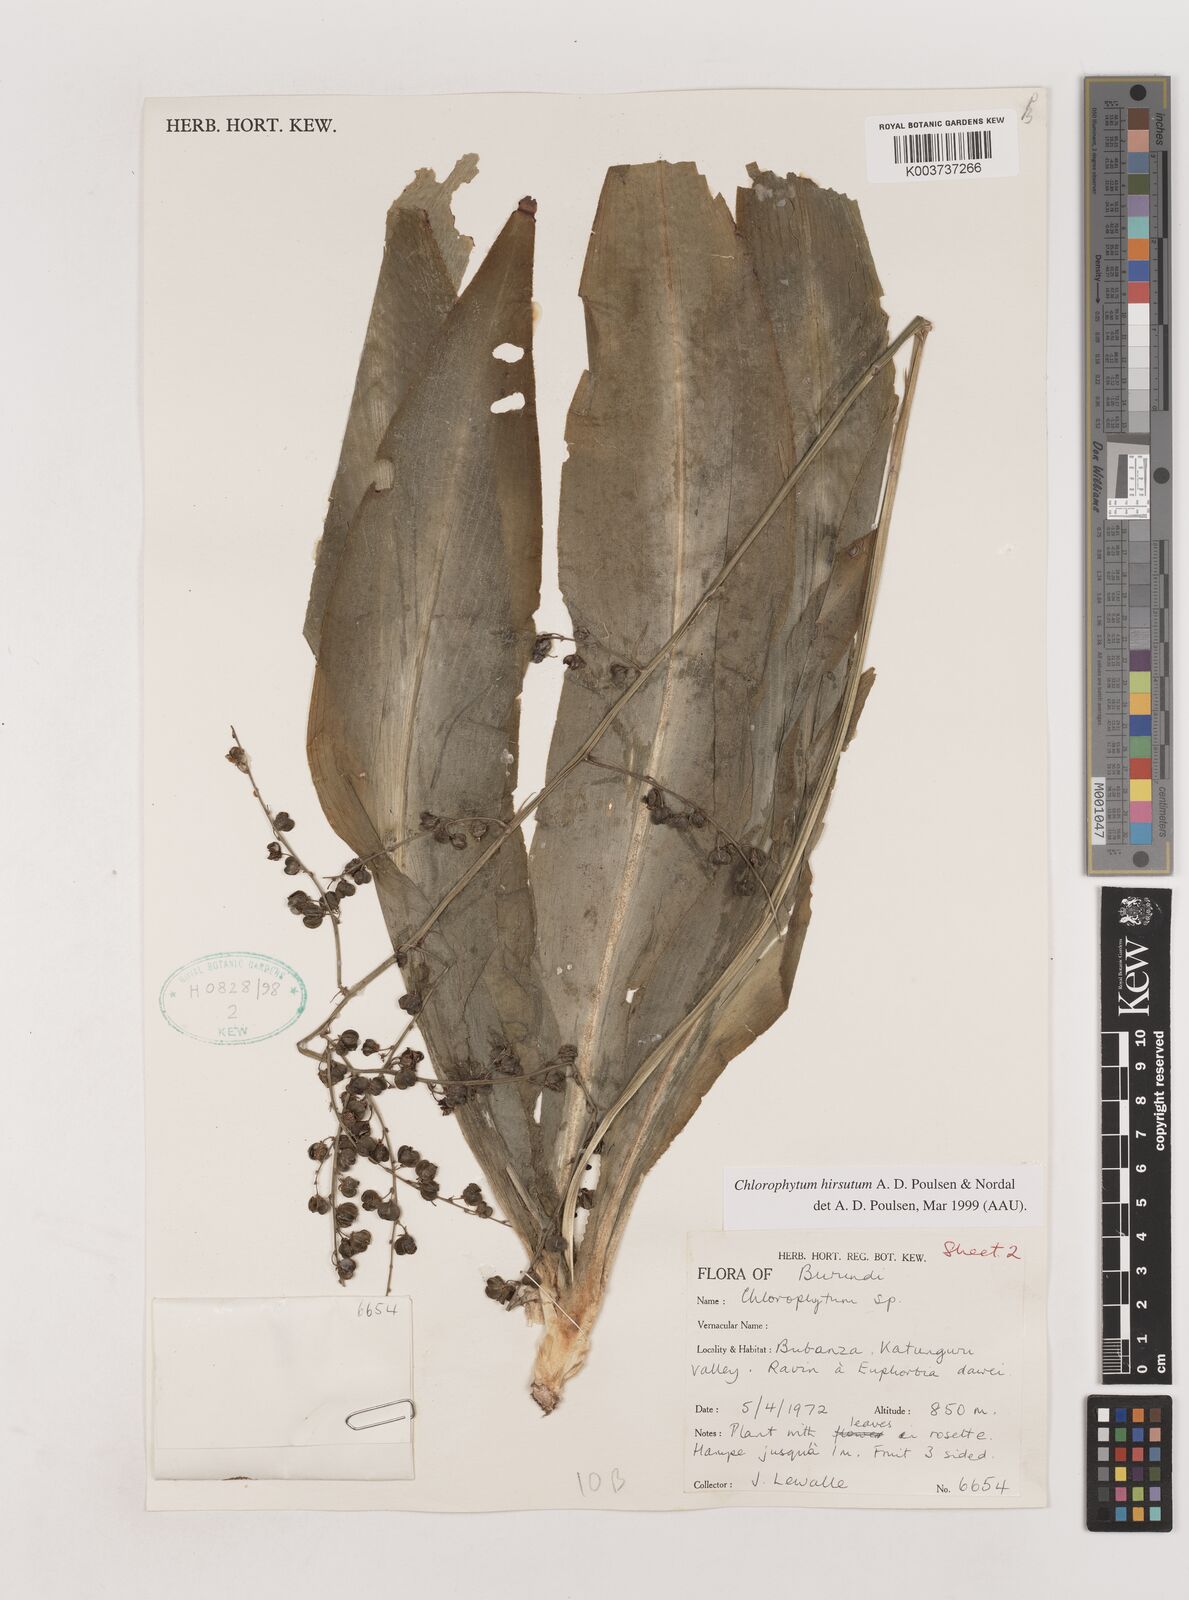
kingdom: Plantae
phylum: Tracheophyta
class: Liliopsida
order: Asparagales
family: Asparagaceae
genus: Chlorophytum
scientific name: Chlorophytum hirsutum
